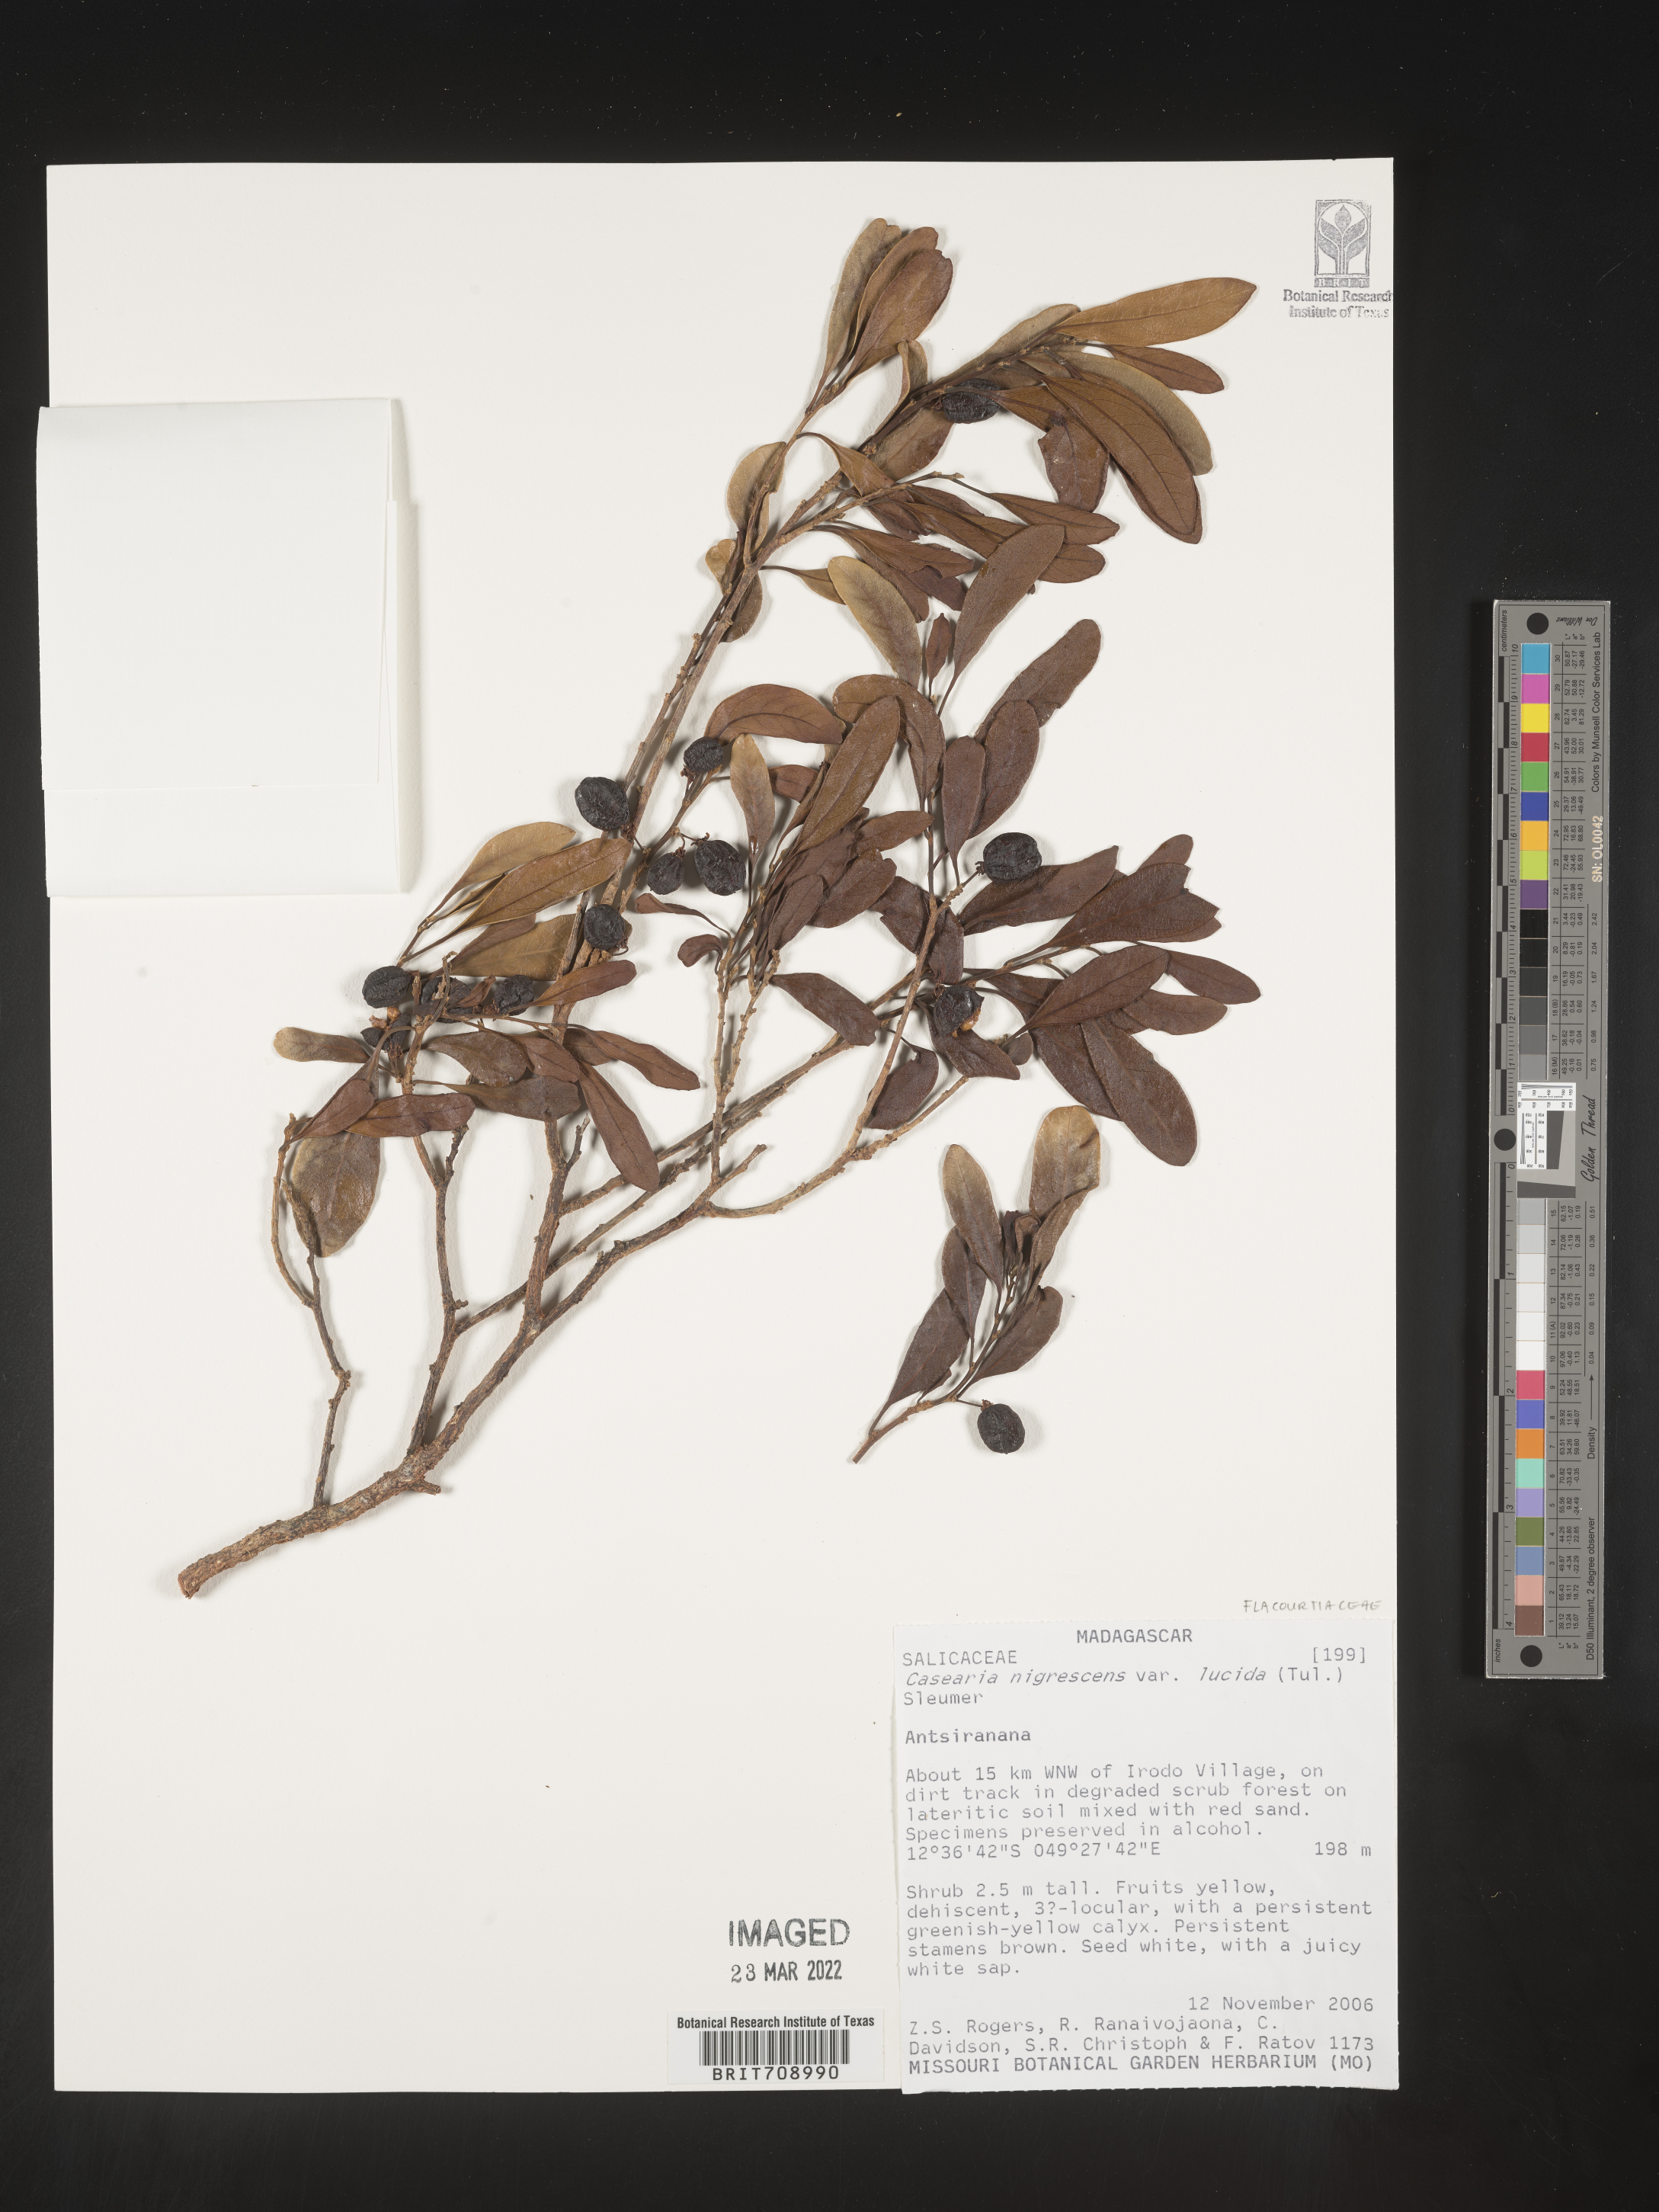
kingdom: Plantae
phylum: Tracheophyta
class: Magnoliopsida
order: Malpighiales
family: Salicaceae
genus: Casearia
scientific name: Casearia
